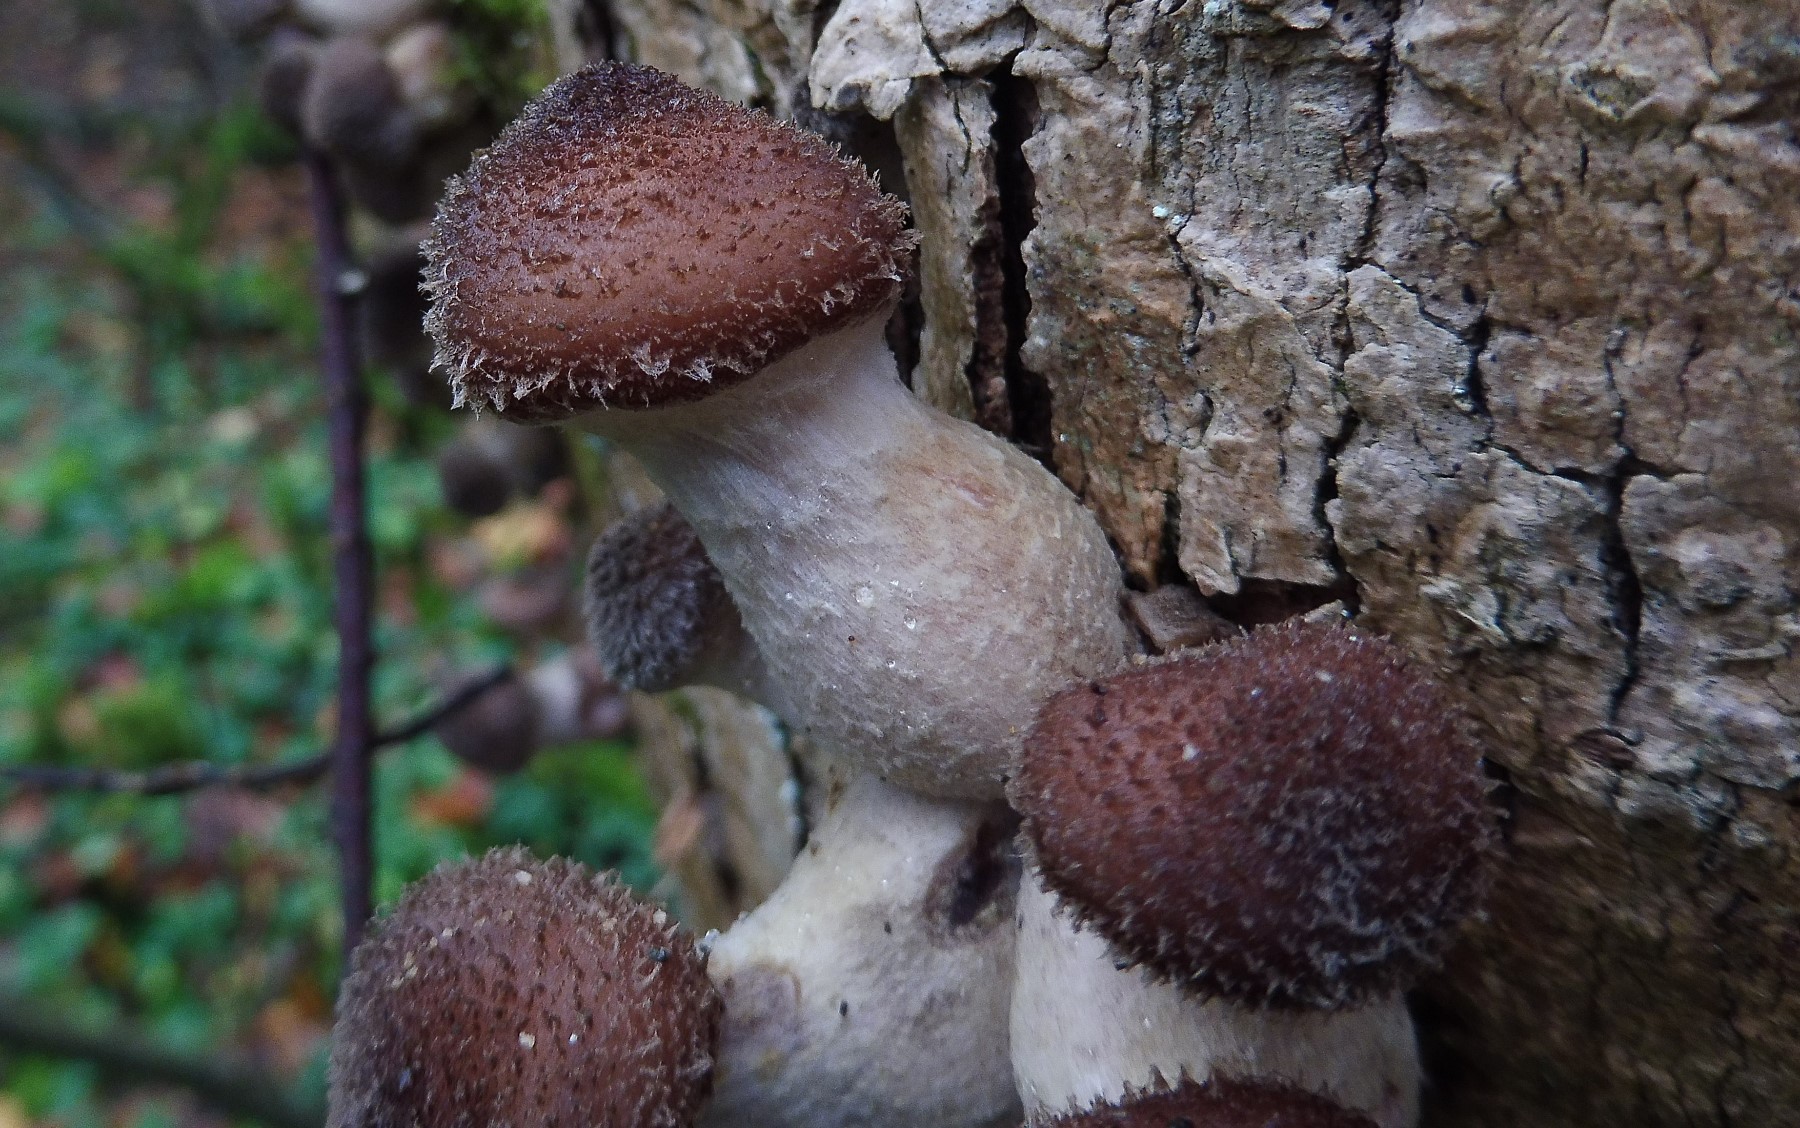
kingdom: Fungi
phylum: Basidiomycota
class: Agaricomycetes
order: Agaricales
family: Physalacriaceae
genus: Armillaria
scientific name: Armillaria
